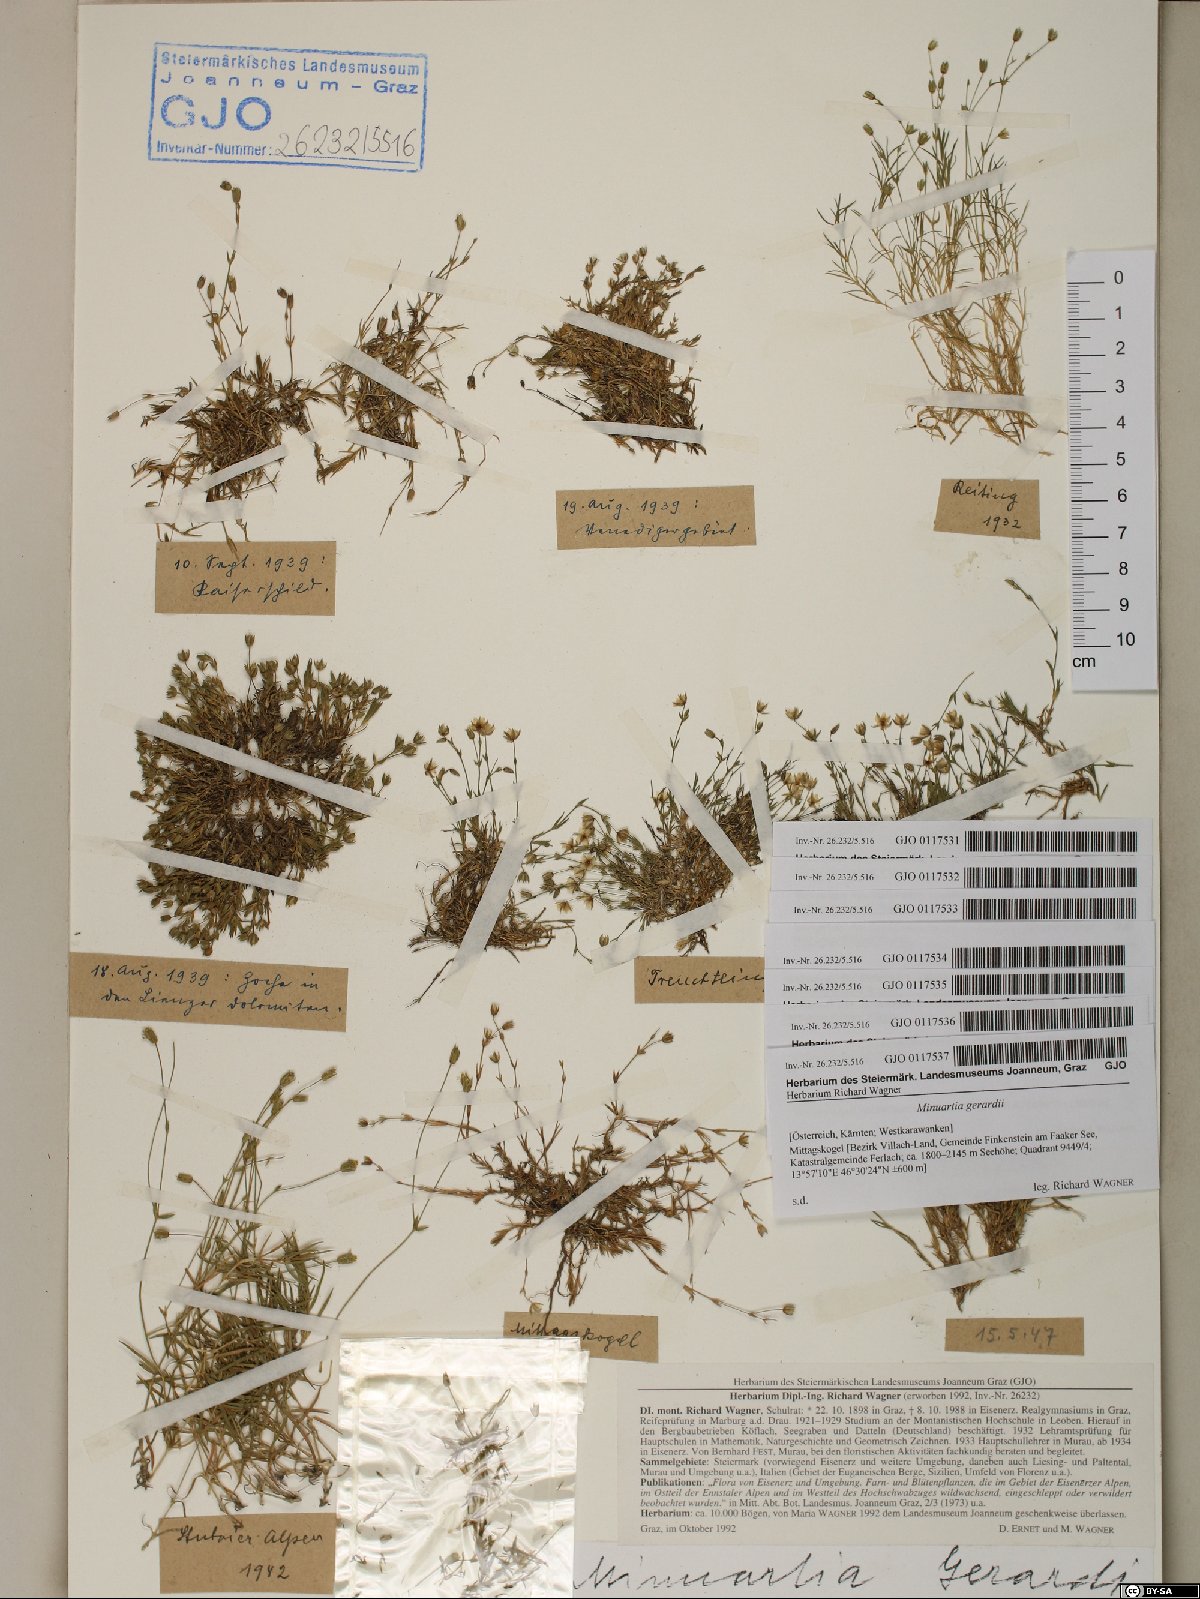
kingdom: Plantae
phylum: Tracheophyta
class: Magnoliopsida
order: Caryophyllales
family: Caryophyllaceae
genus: Sabulina
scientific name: Sabulina verna
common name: Spring sandwort
